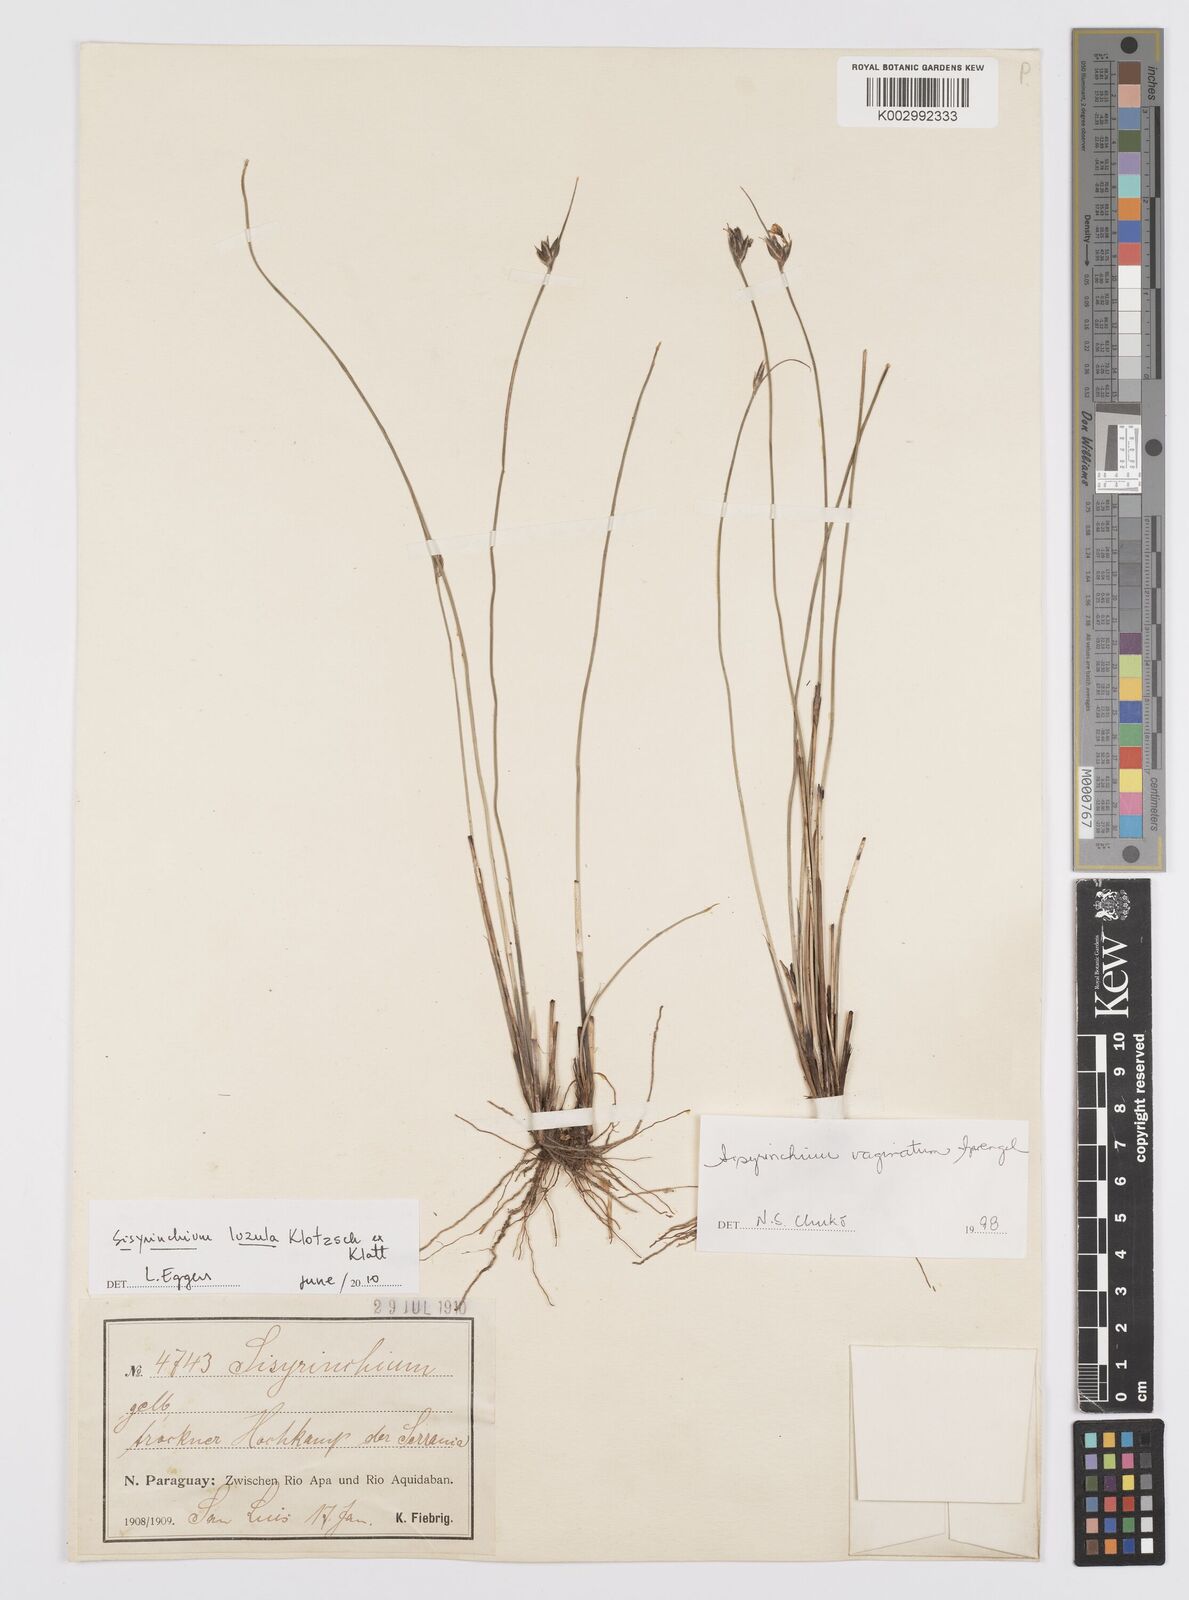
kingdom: Plantae
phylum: Tracheophyta
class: Liliopsida
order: Asparagales
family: Iridaceae
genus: Sisyrinchium
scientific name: Sisyrinchium luzula
